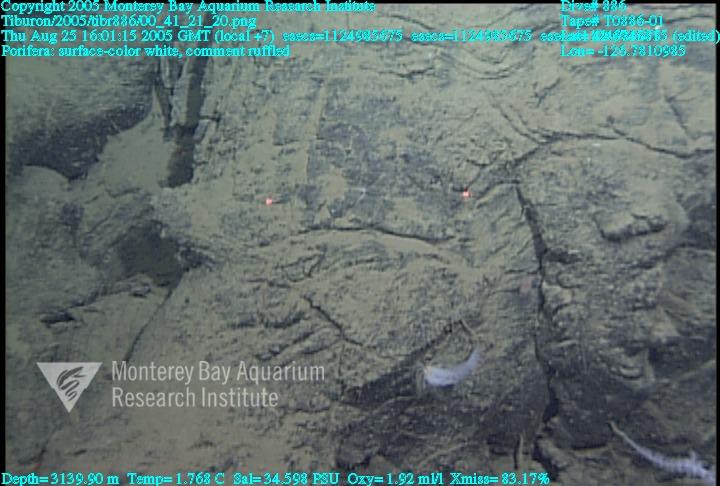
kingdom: Animalia
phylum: Porifera
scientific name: Porifera
